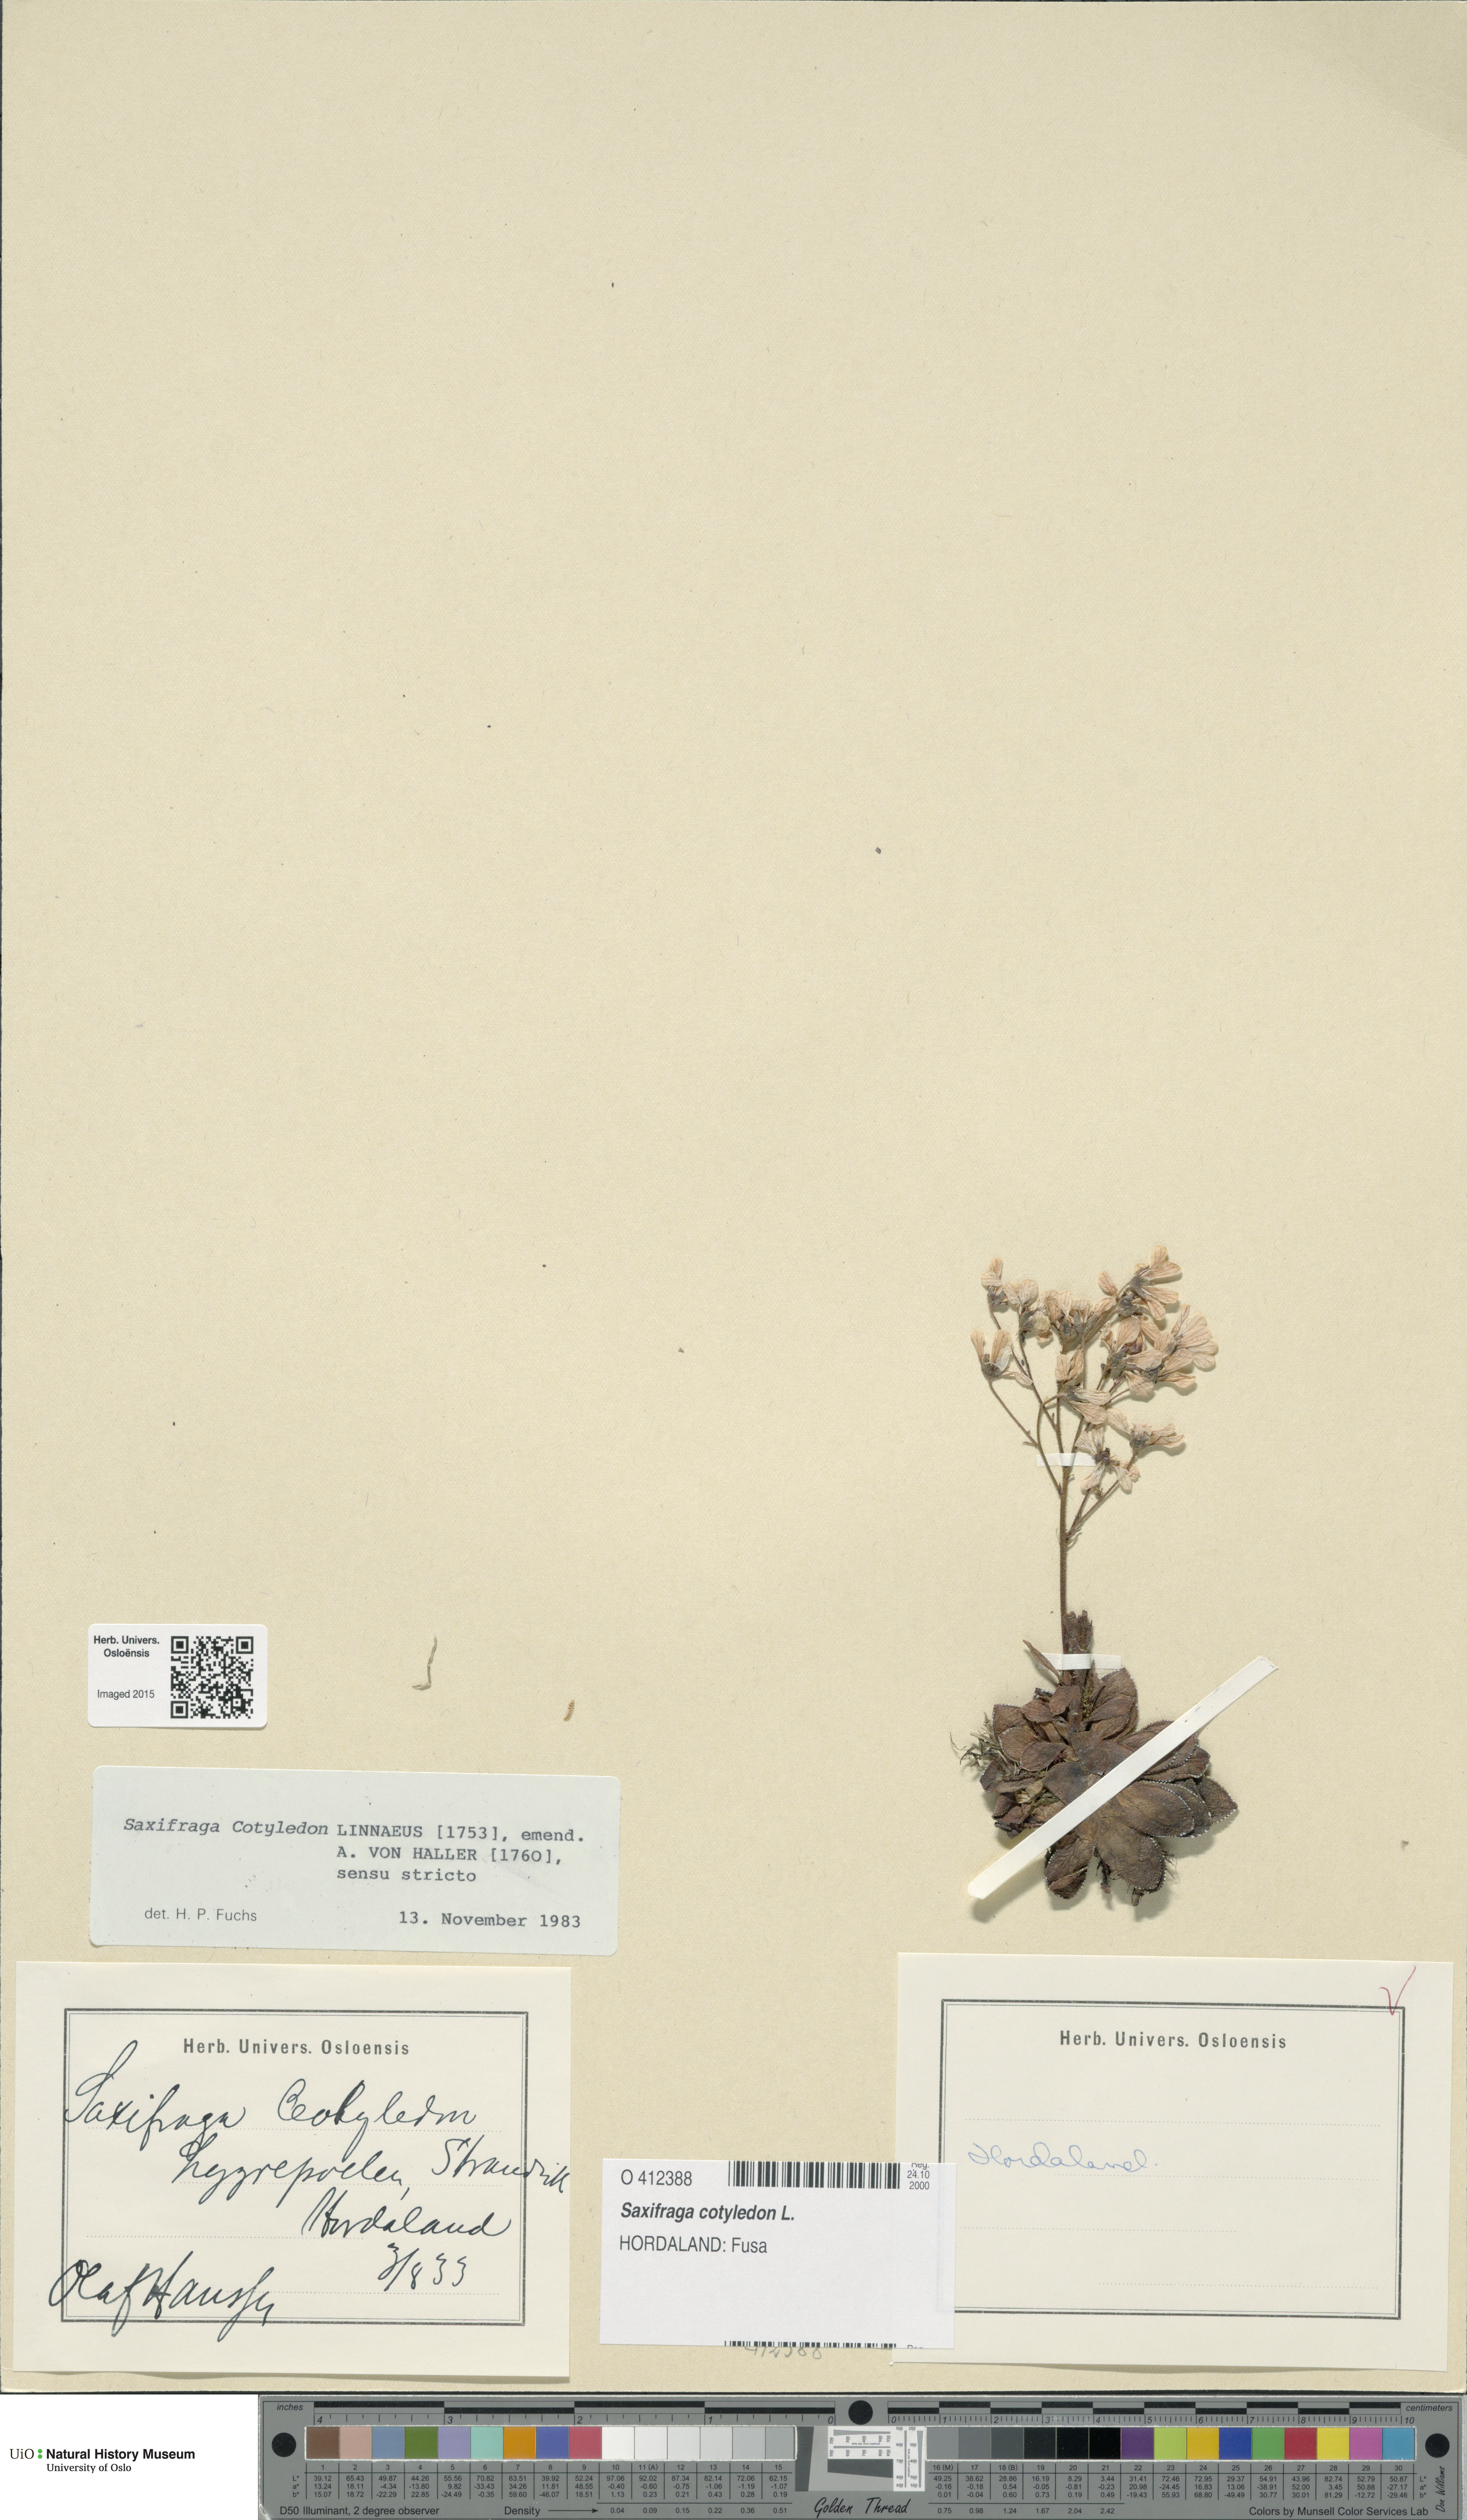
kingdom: Plantae
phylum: Tracheophyta
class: Magnoliopsida
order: Saxifragales
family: Saxifragaceae
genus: Saxifraga
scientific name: Saxifraga cotyledon
